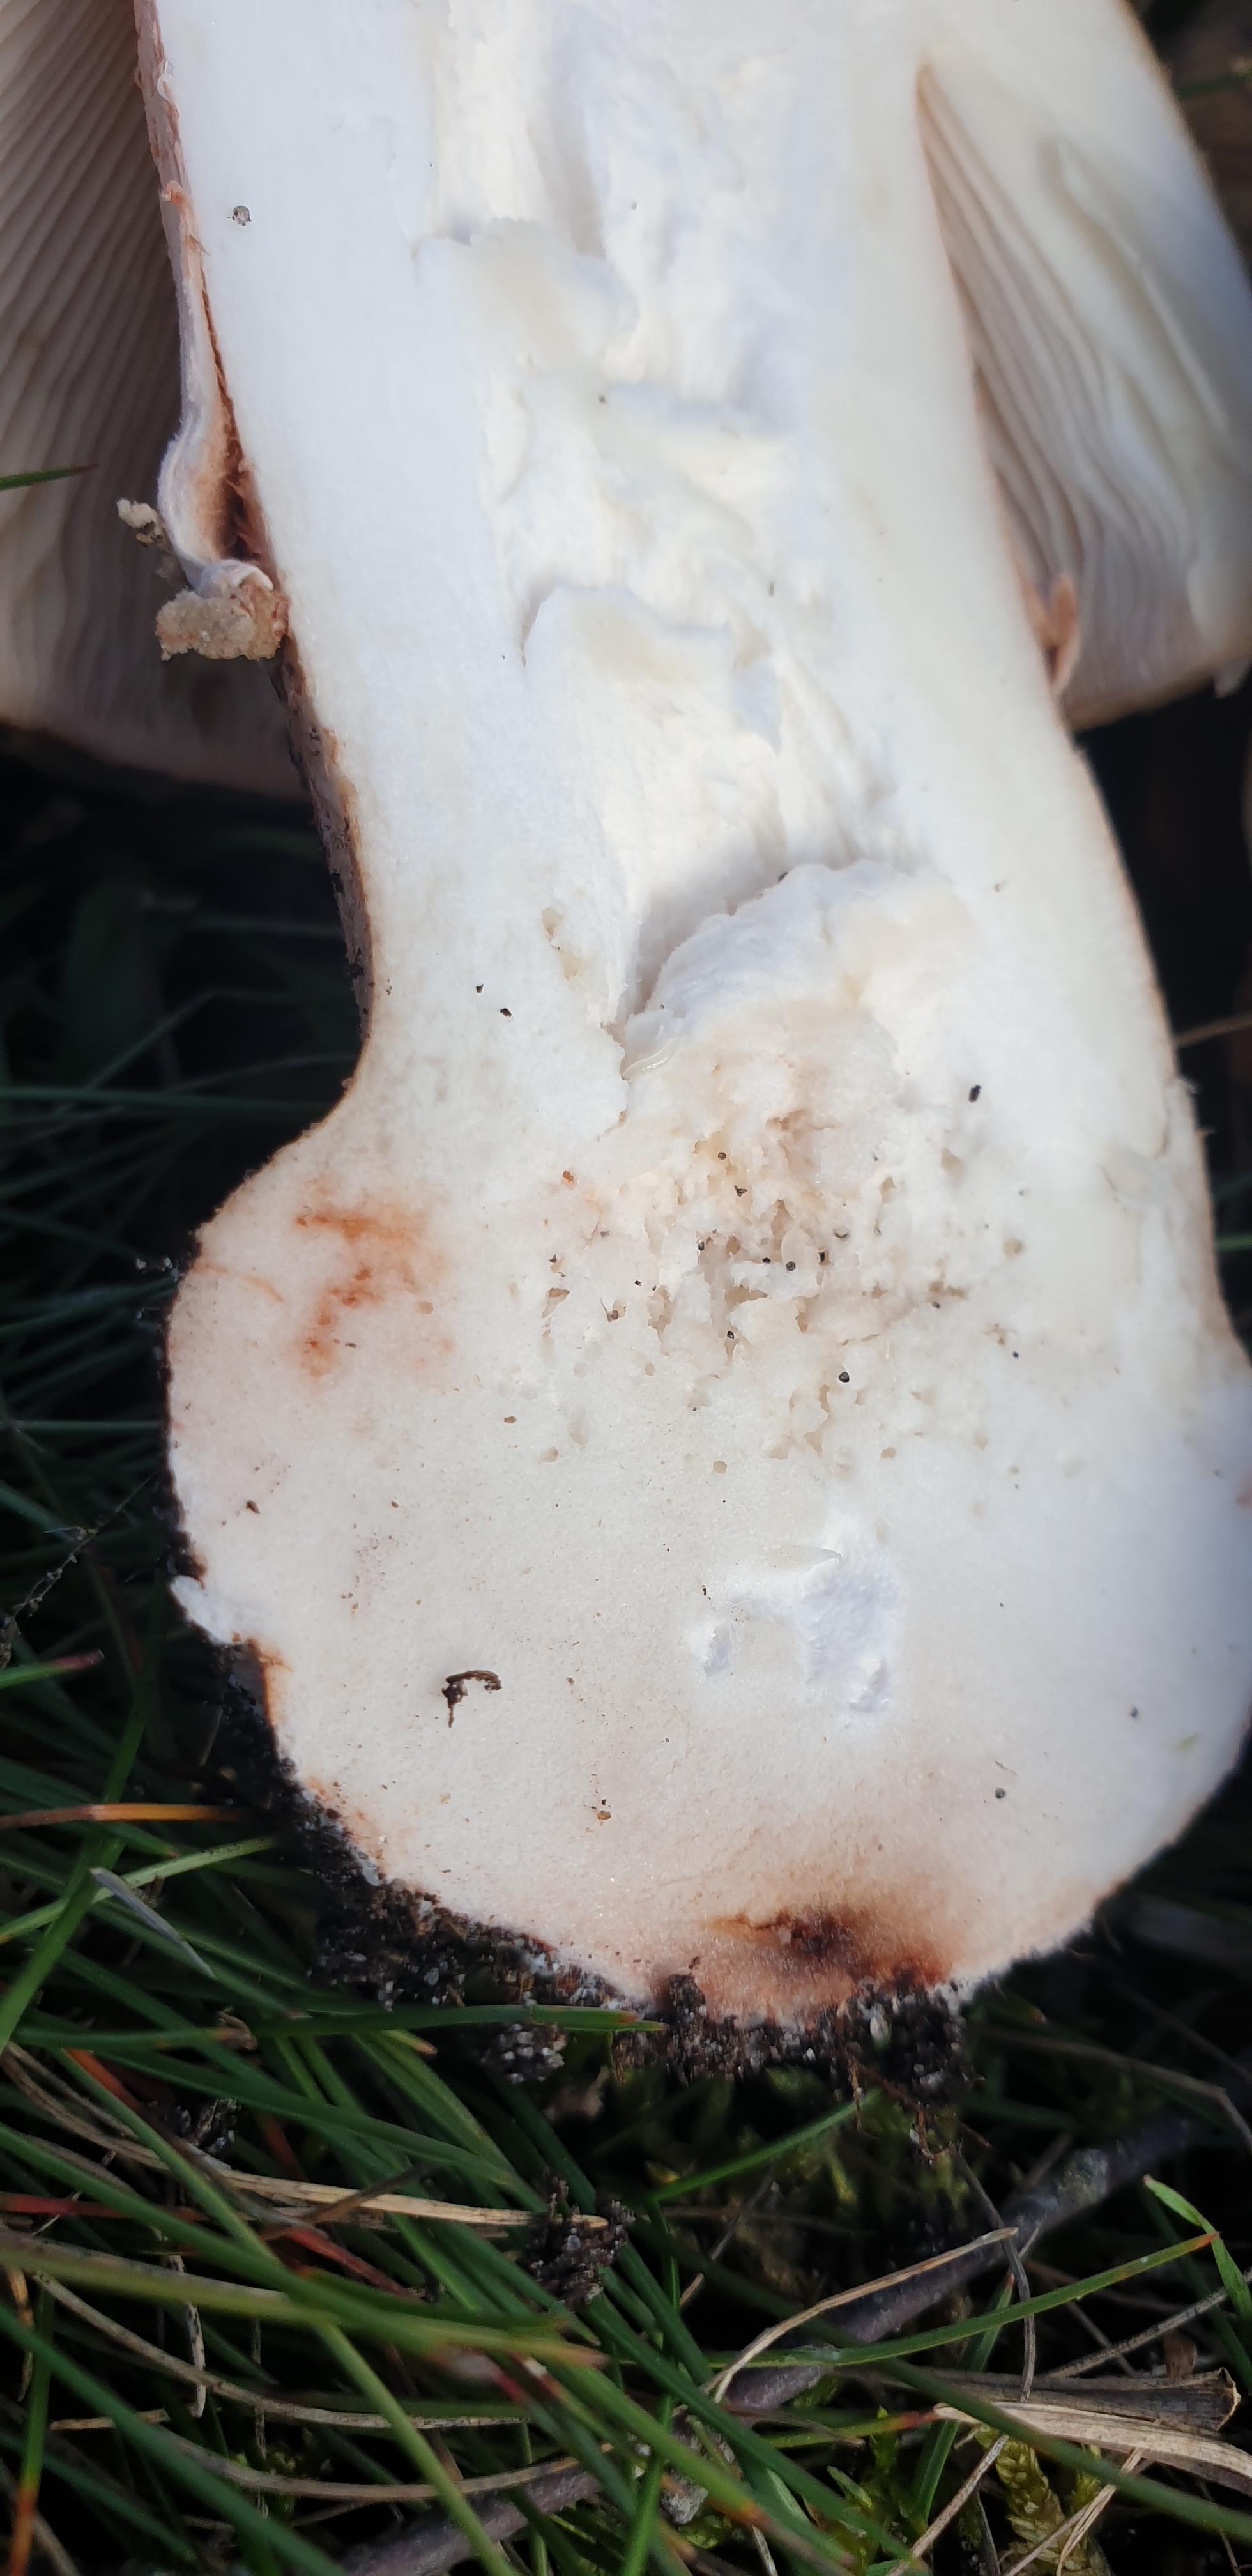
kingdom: Fungi
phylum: Basidiomycota
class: Agaricomycetes
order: Agaricales
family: Amanitaceae
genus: Amanita
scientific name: Amanita rubescens
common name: rødmende fluesvamp
